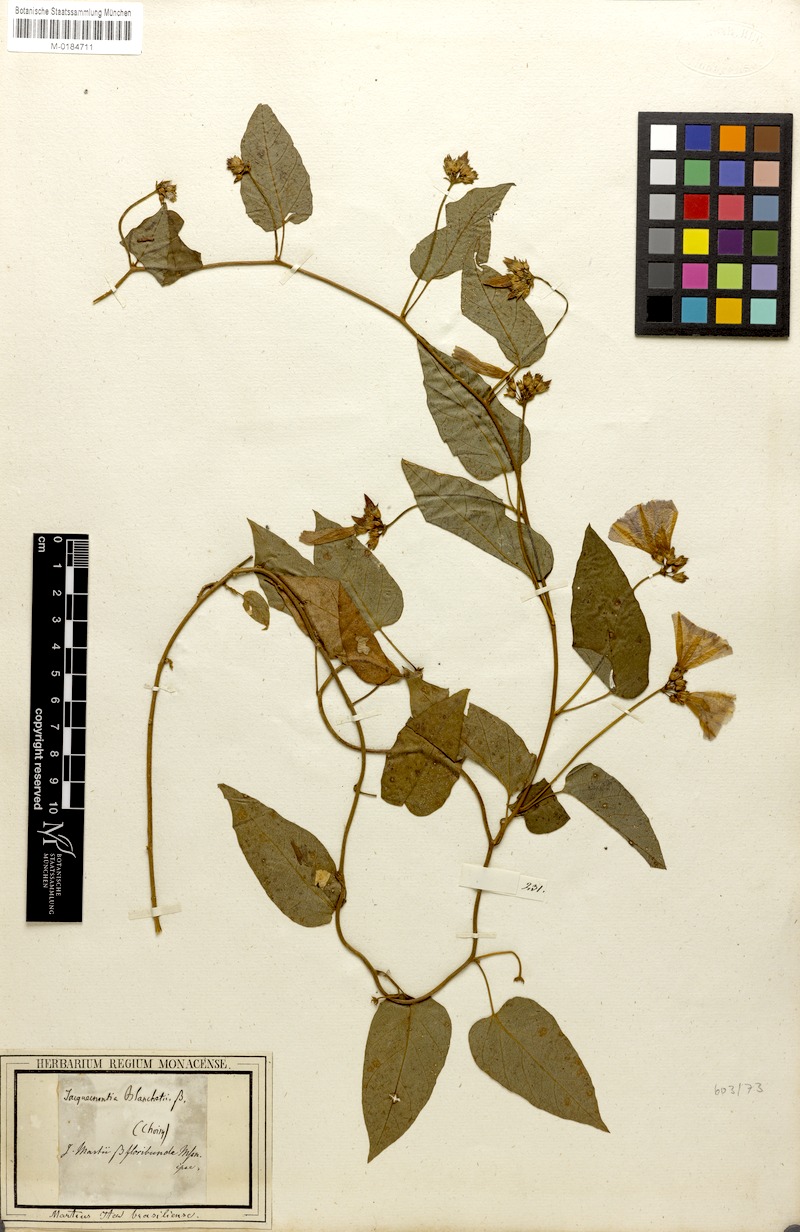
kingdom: Plantae
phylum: Tracheophyta
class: Magnoliopsida
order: Solanales
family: Convolvulaceae
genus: Jacquemontia
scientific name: Jacquemontia blanchetii
